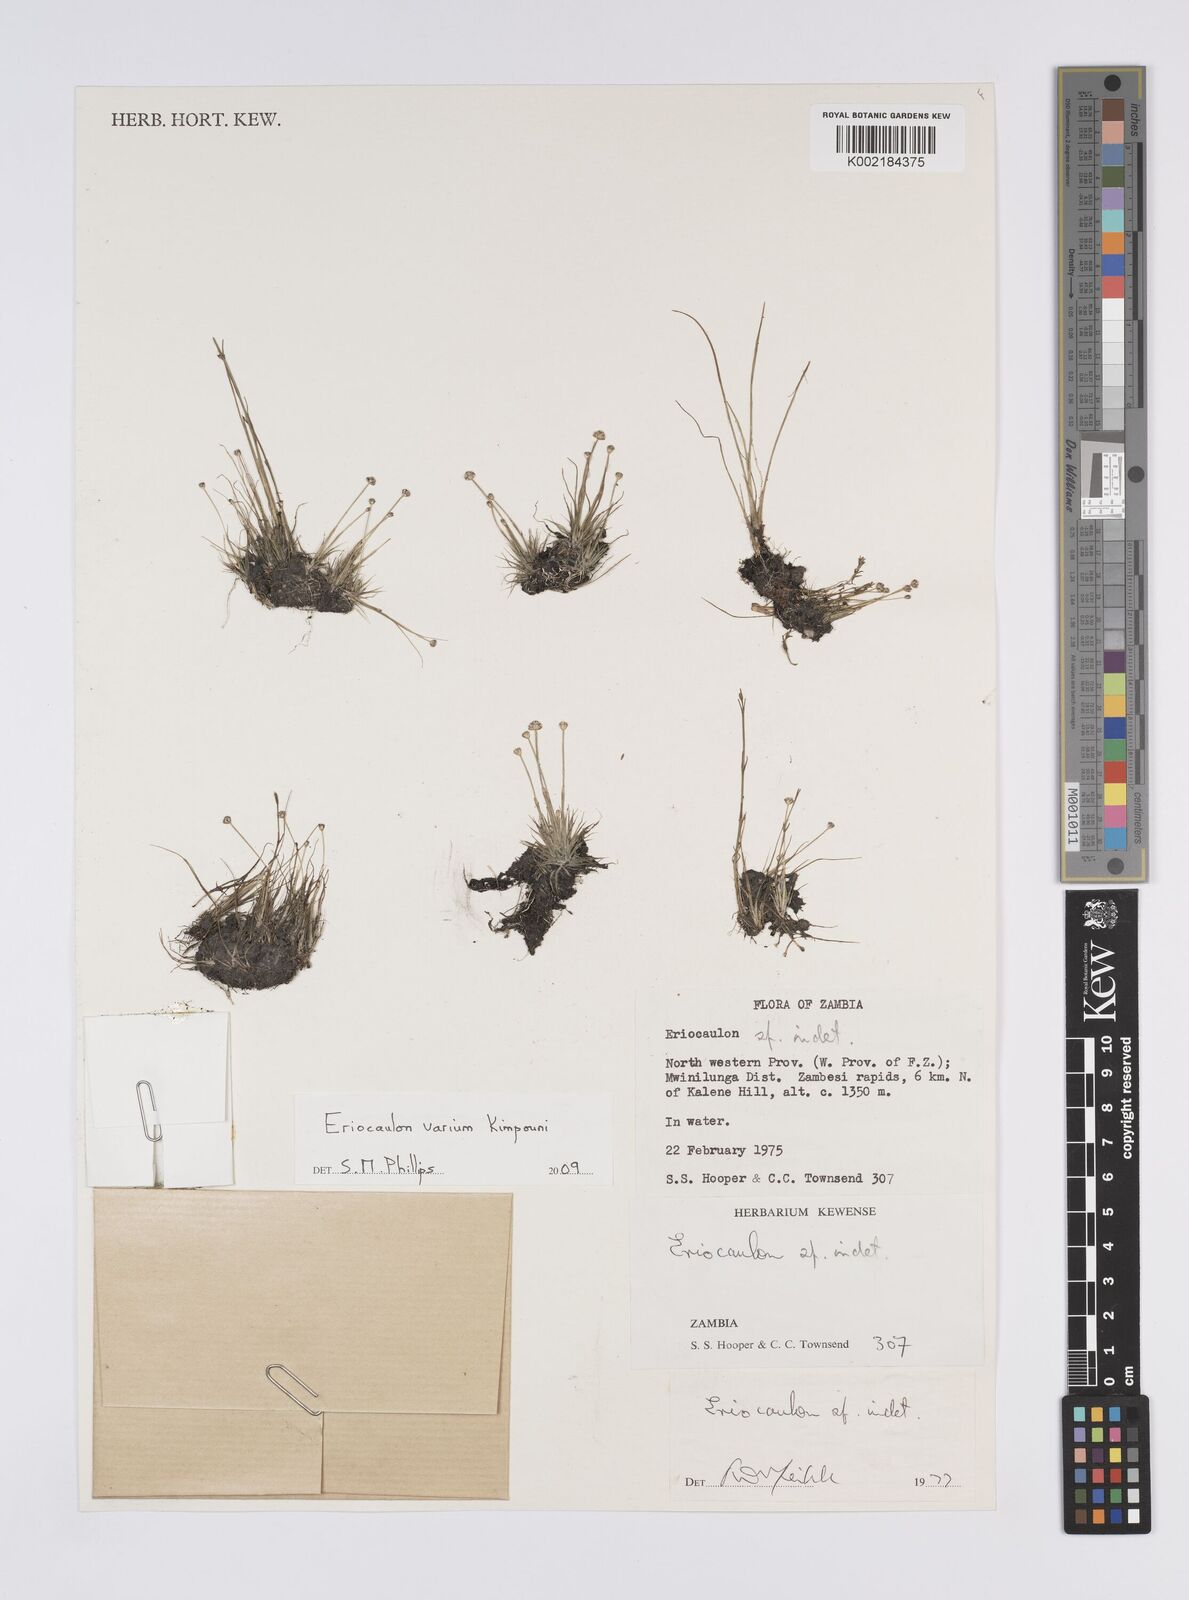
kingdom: Plantae
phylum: Tracheophyta
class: Liliopsida
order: Poales
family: Eriocaulaceae
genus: Eriocaulon
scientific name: Eriocaulon varium
